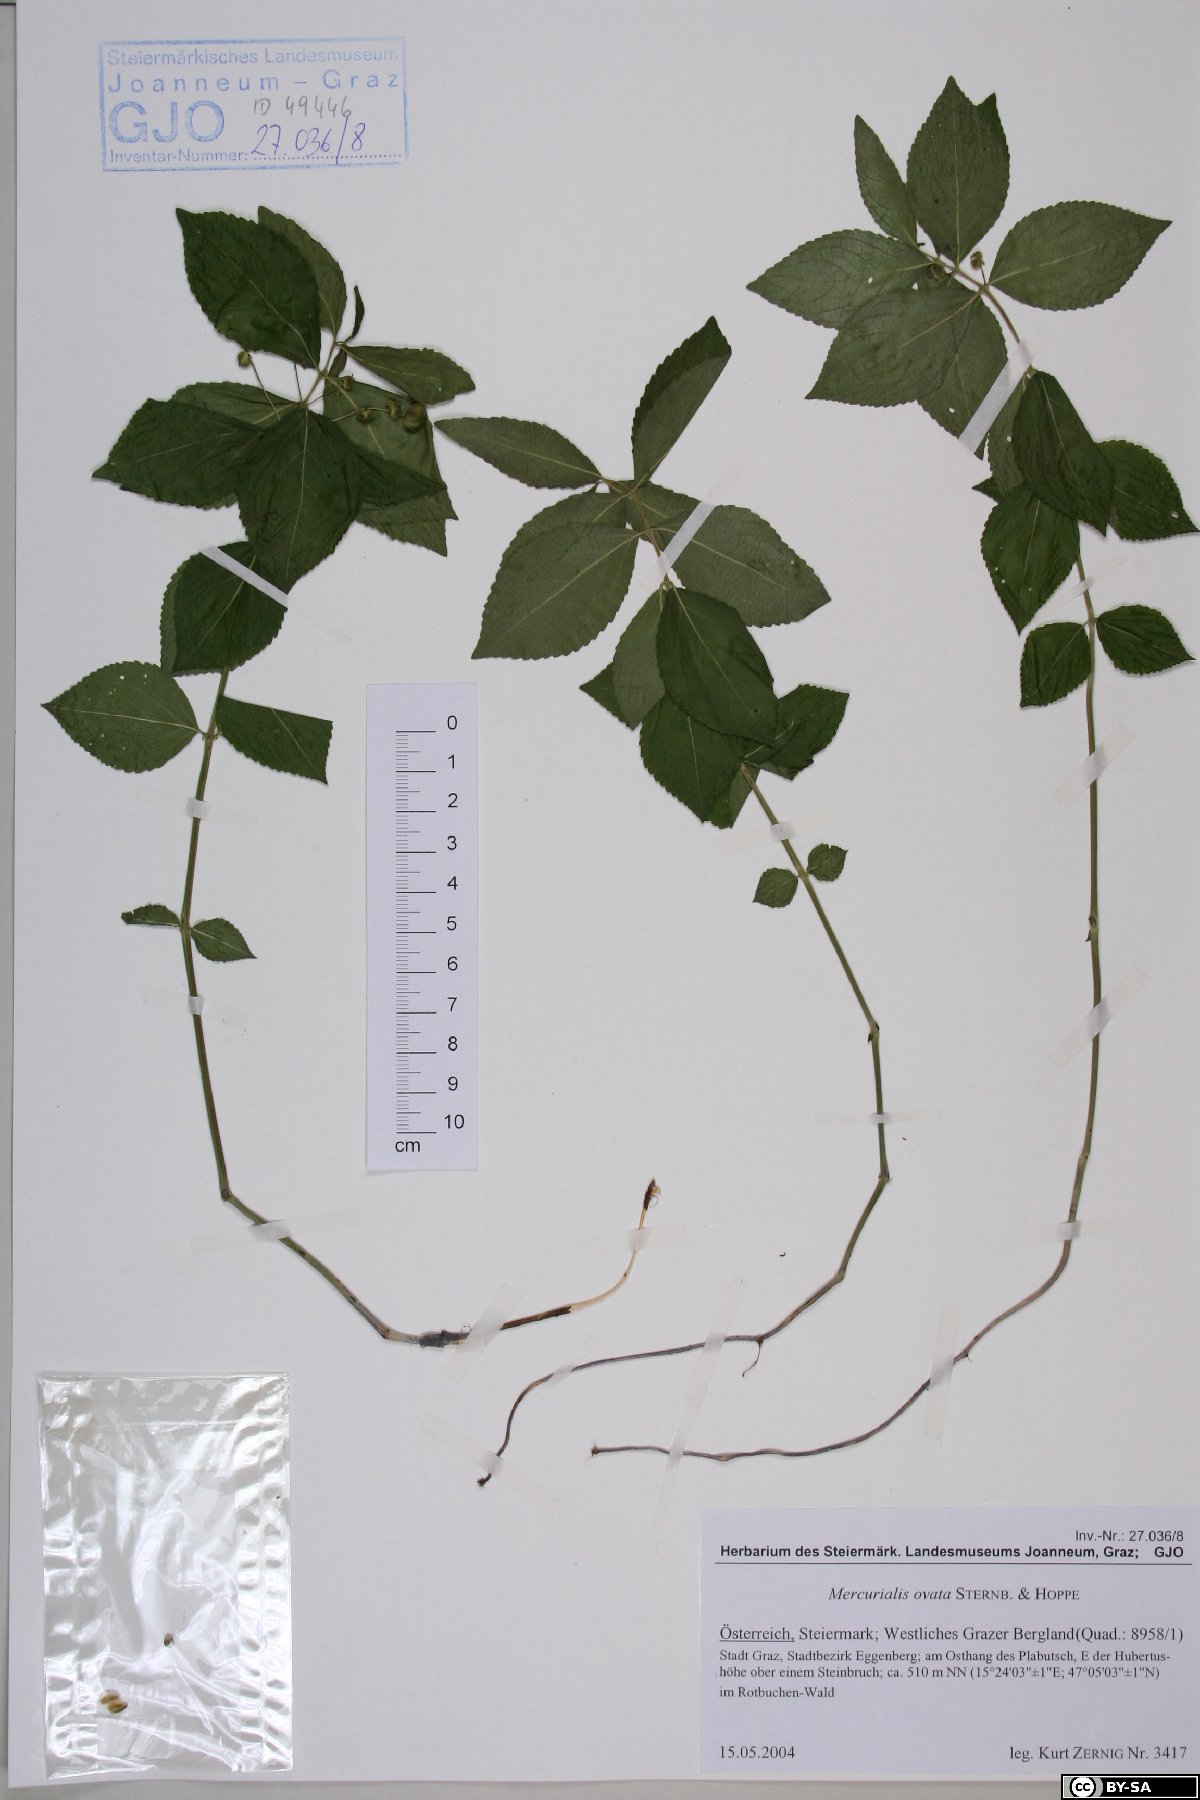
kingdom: Plantae
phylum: Tracheophyta
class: Magnoliopsida
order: Malpighiales
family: Euphorbiaceae
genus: Mercurialis
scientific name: Mercurialis ovata
